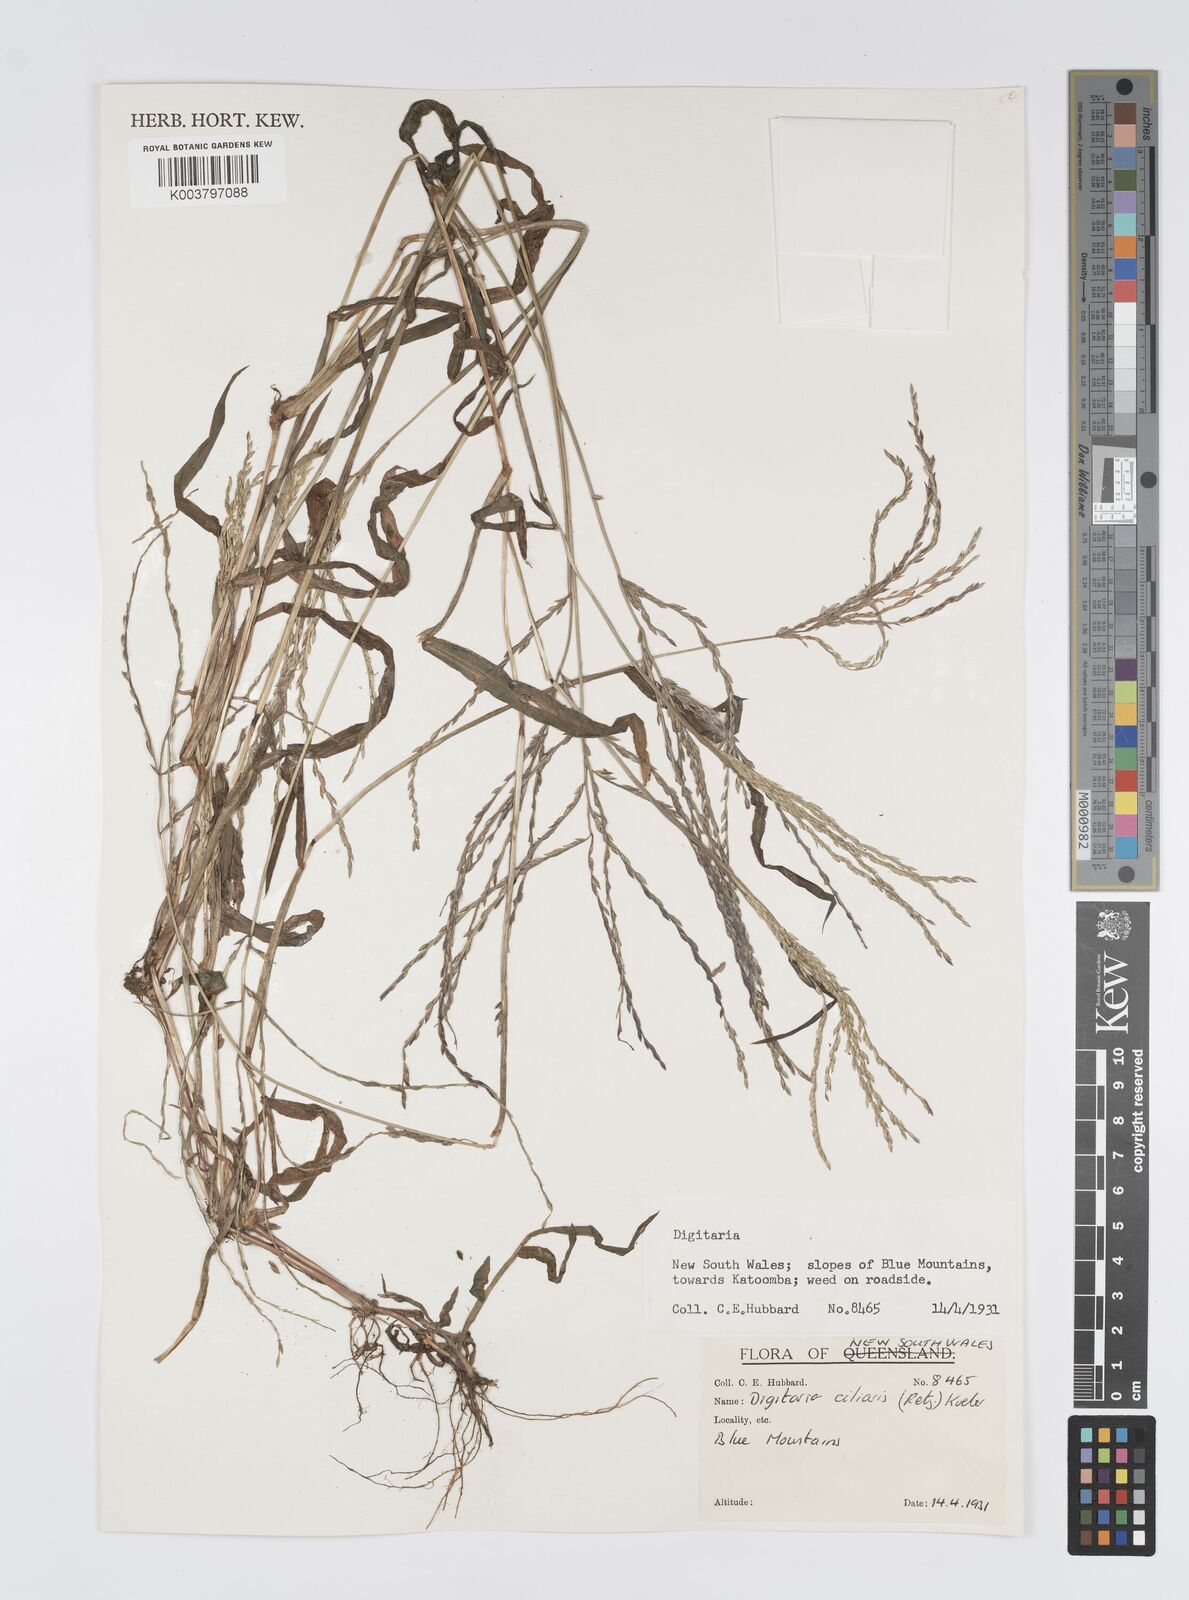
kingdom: Plantae
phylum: Tracheophyta
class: Liliopsida
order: Poales
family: Poaceae
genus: Digitaria
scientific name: Digitaria ciliaris
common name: Tropical finger-grass
